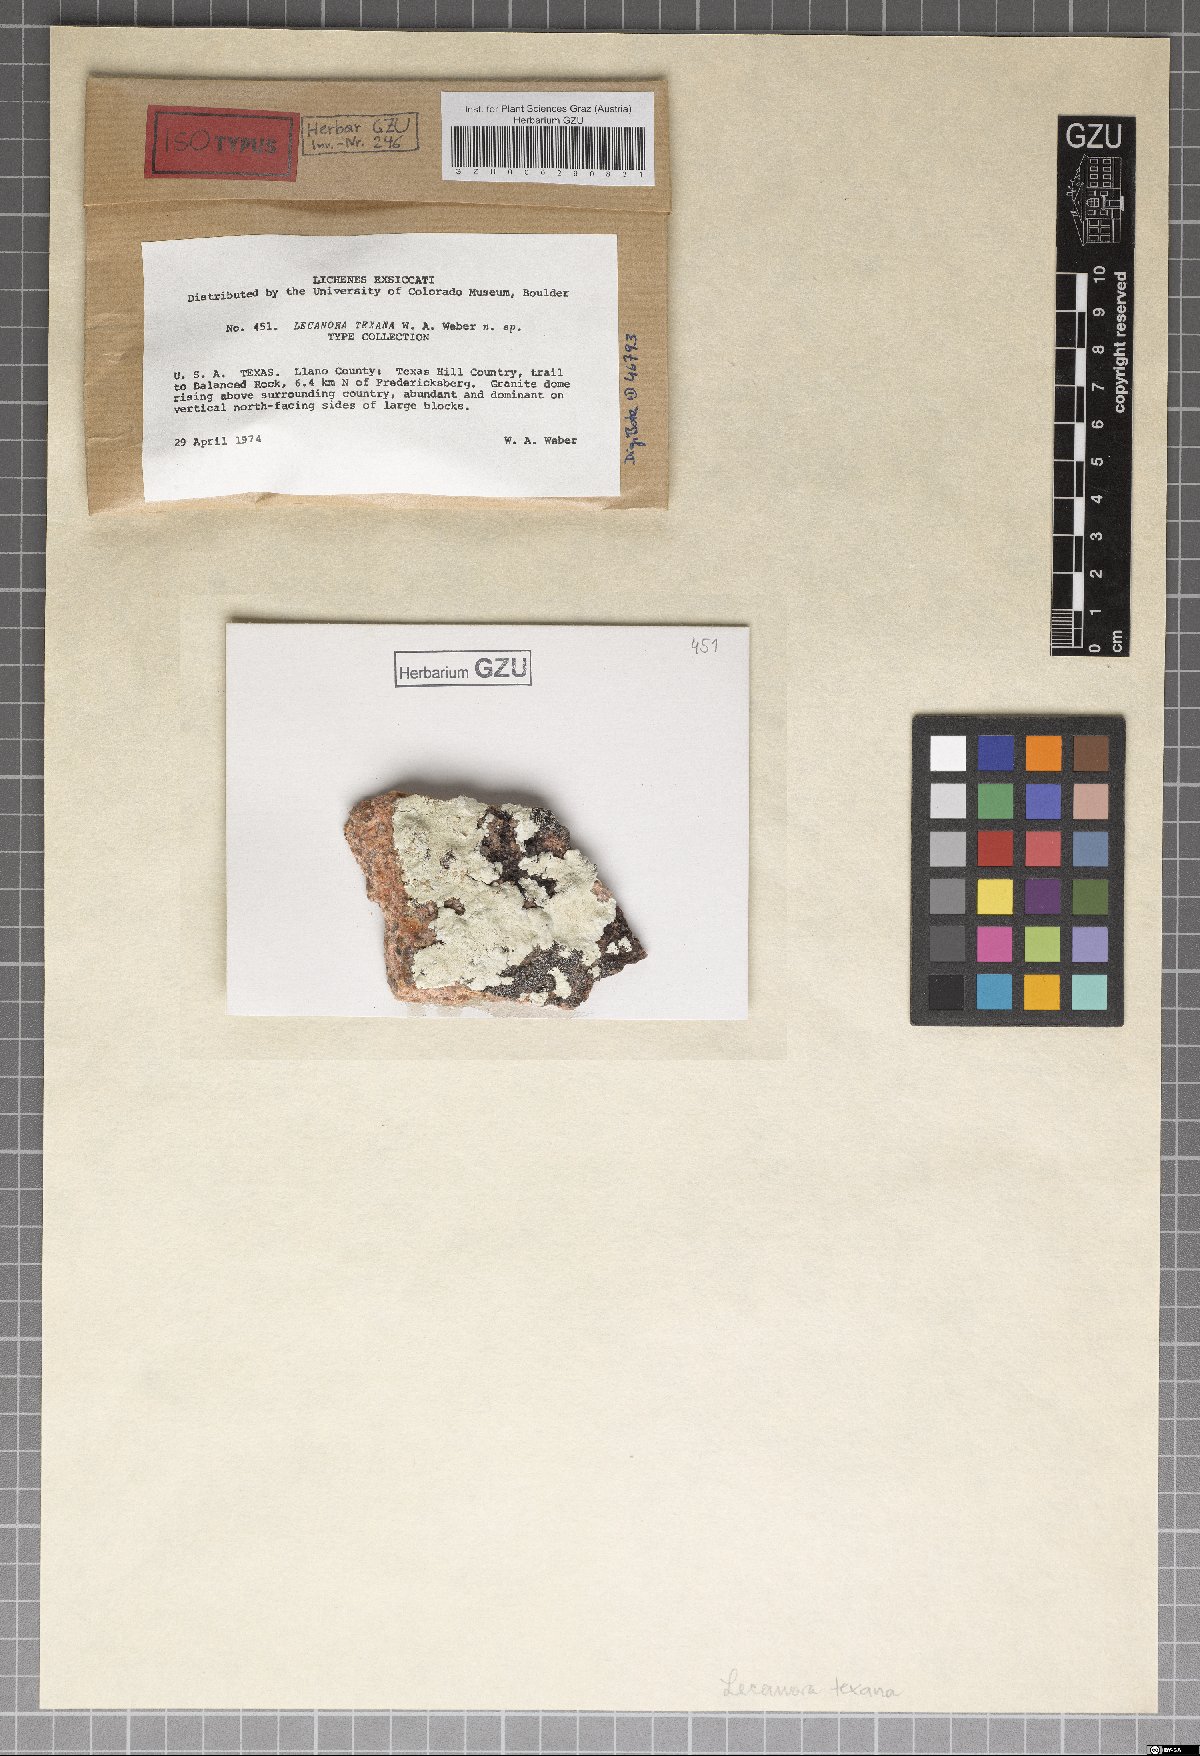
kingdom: Fungi
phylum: Ascomycota
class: Lecanoromycetes
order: Lecanorales
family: Lecanoraceae
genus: Lecanora
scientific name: Lecanora texana
